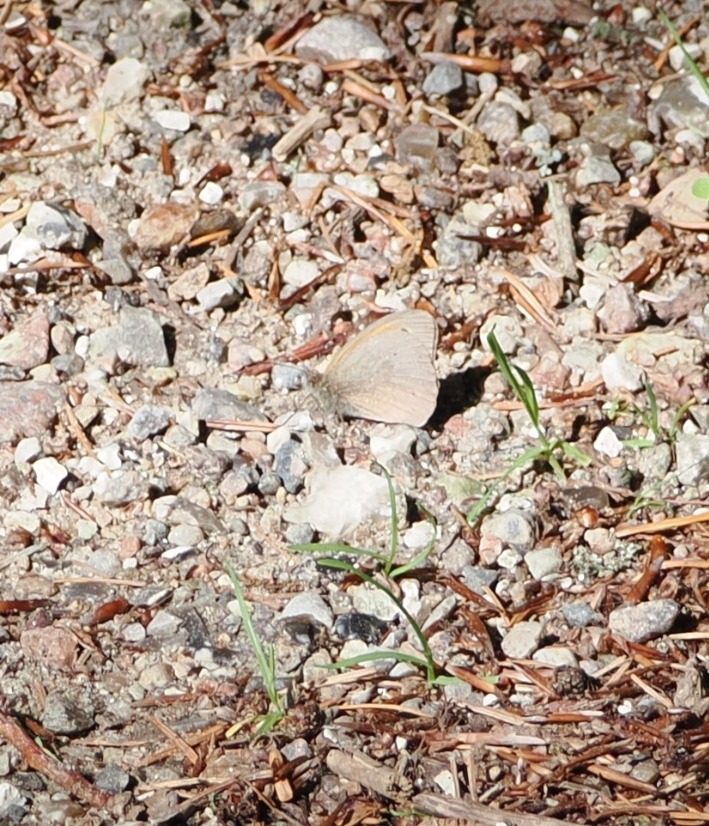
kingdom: Animalia
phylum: Arthropoda
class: Insecta
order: Lepidoptera
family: Nymphalidae
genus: Maniola
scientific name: Maniola jurtina
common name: Græsrandøje
